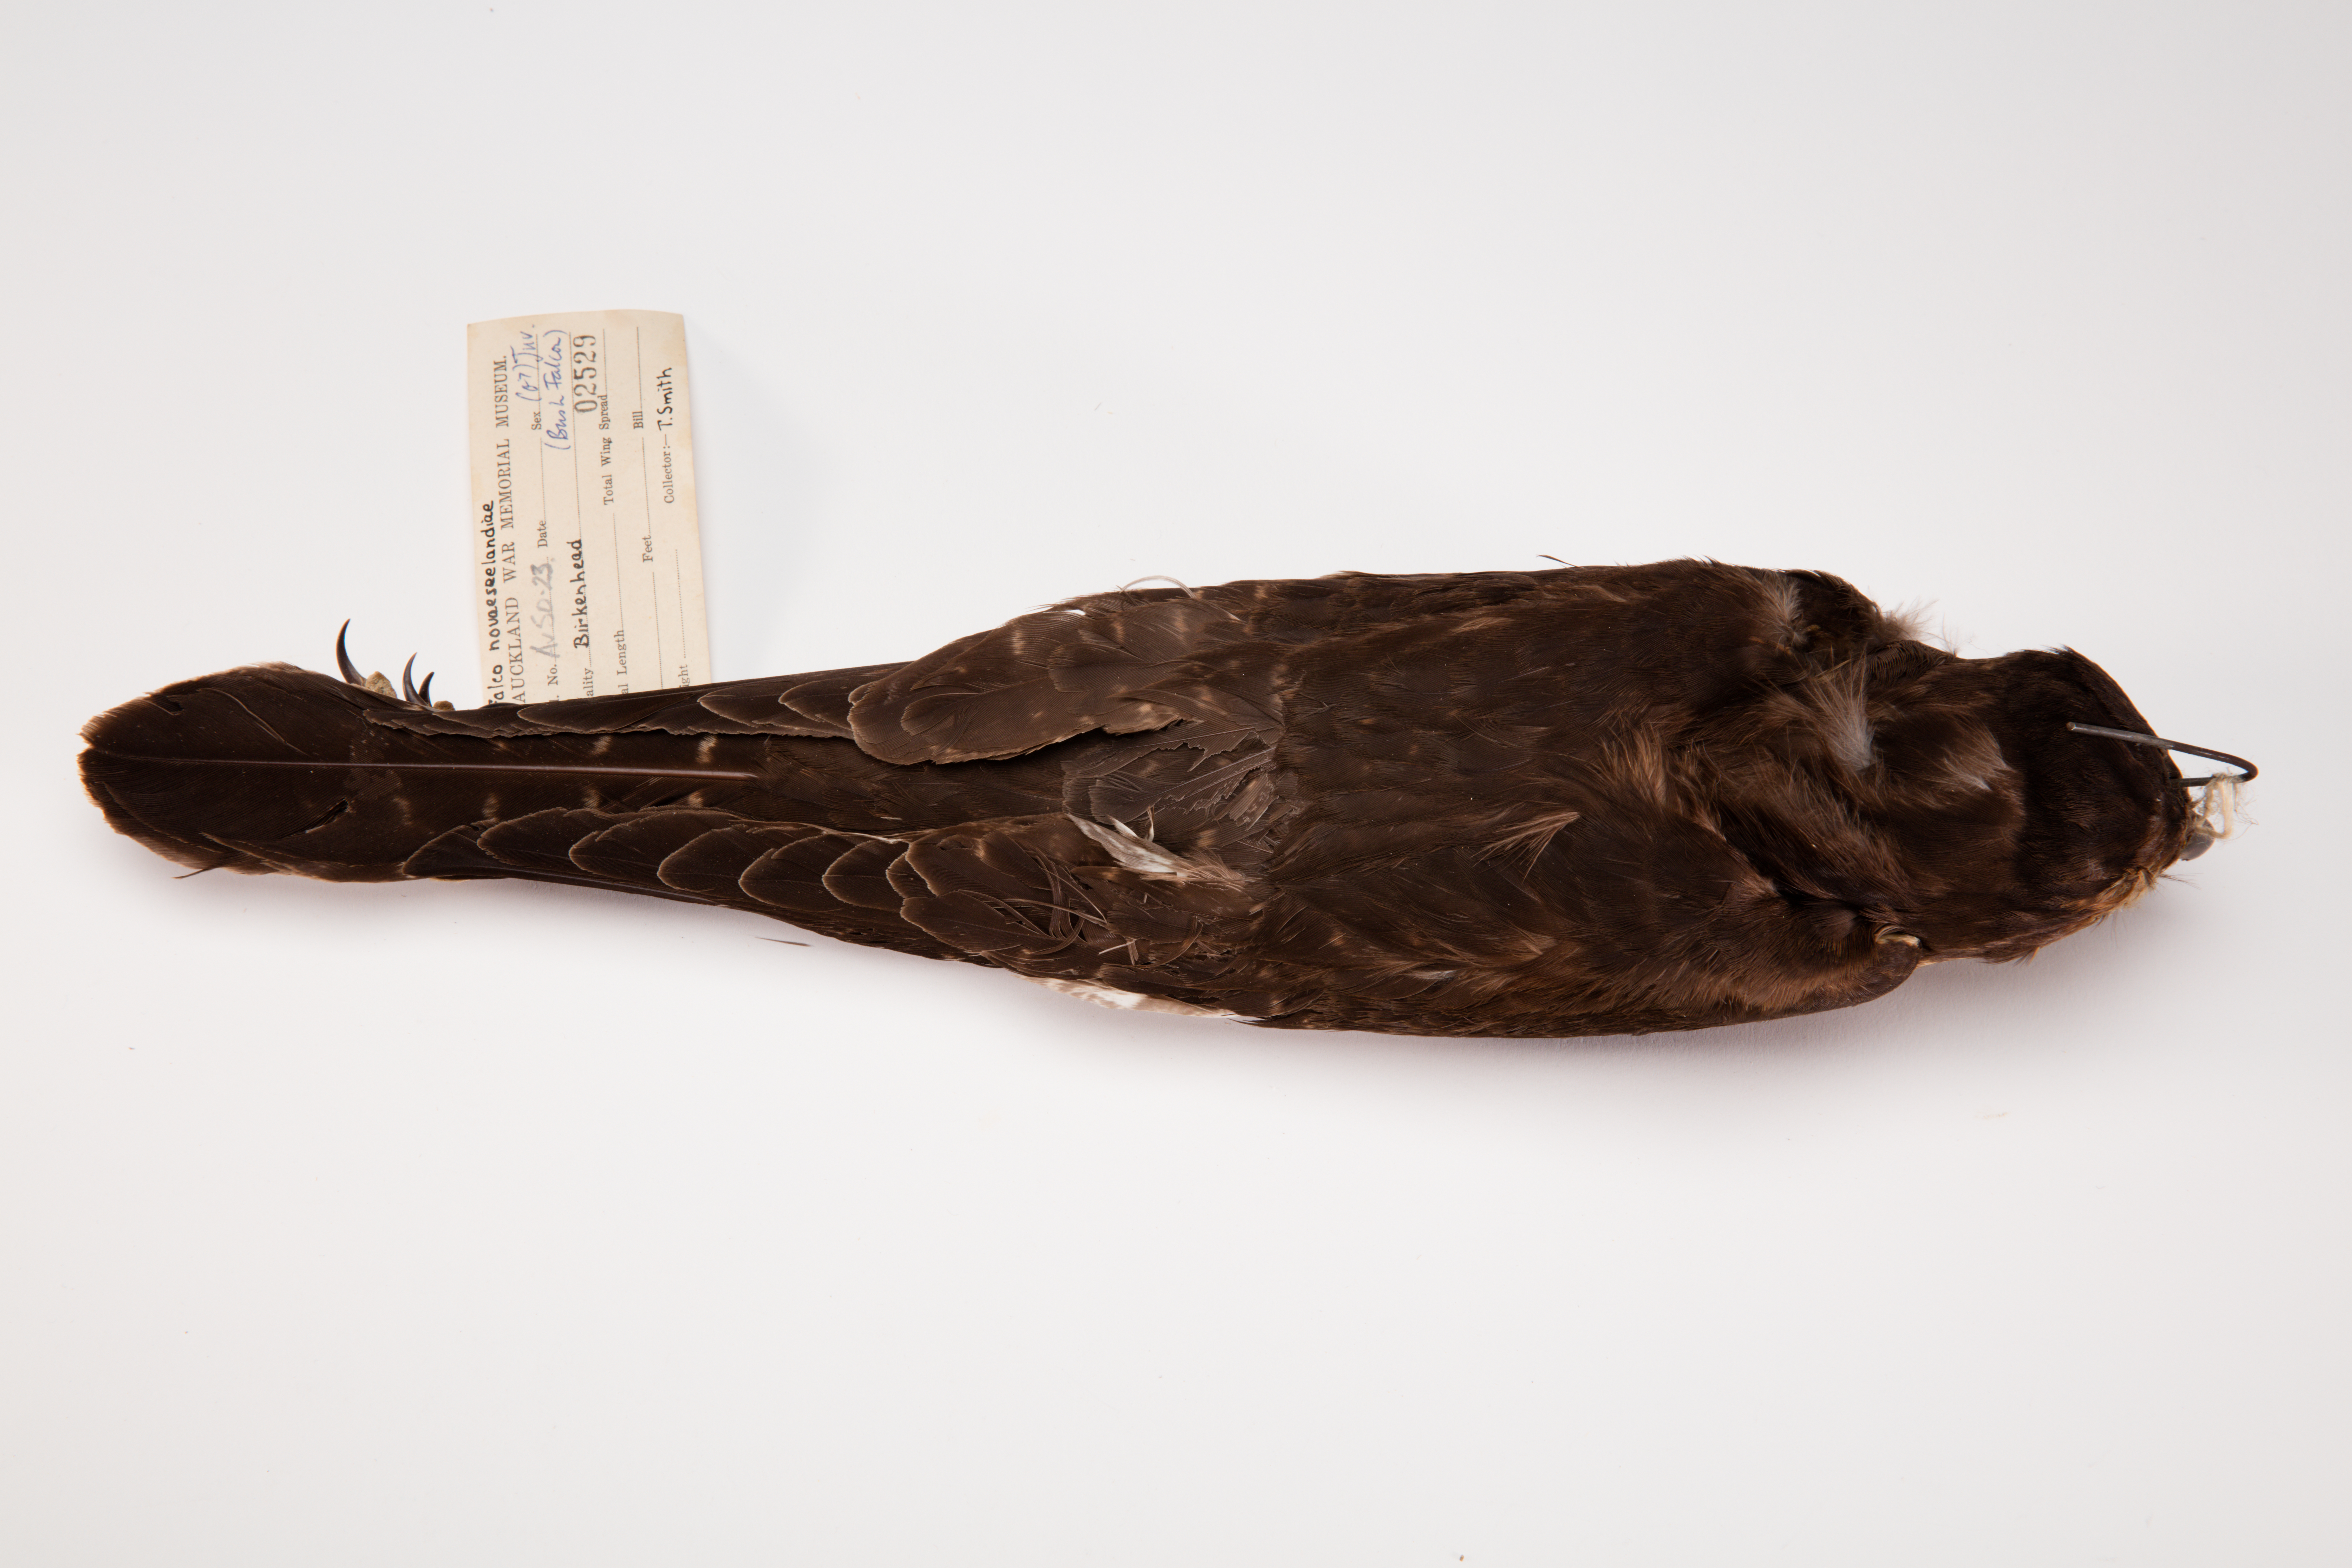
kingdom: Animalia
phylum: Chordata
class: Aves
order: Falconiformes
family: Falconidae
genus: Falco
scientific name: Falco novaeseelandiae
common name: New zealand falcon
